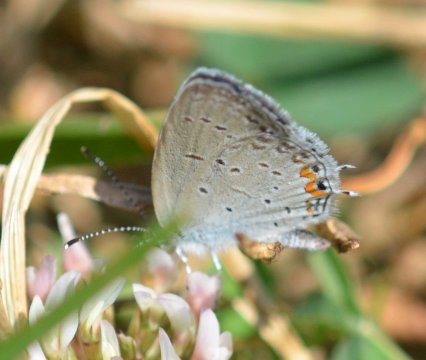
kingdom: Animalia
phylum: Arthropoda
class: Insecta
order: Lepidoptera
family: Lycaenidae
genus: Elkalyce
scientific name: Elkalyce comyntas
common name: Eastern Tailed-Blue
